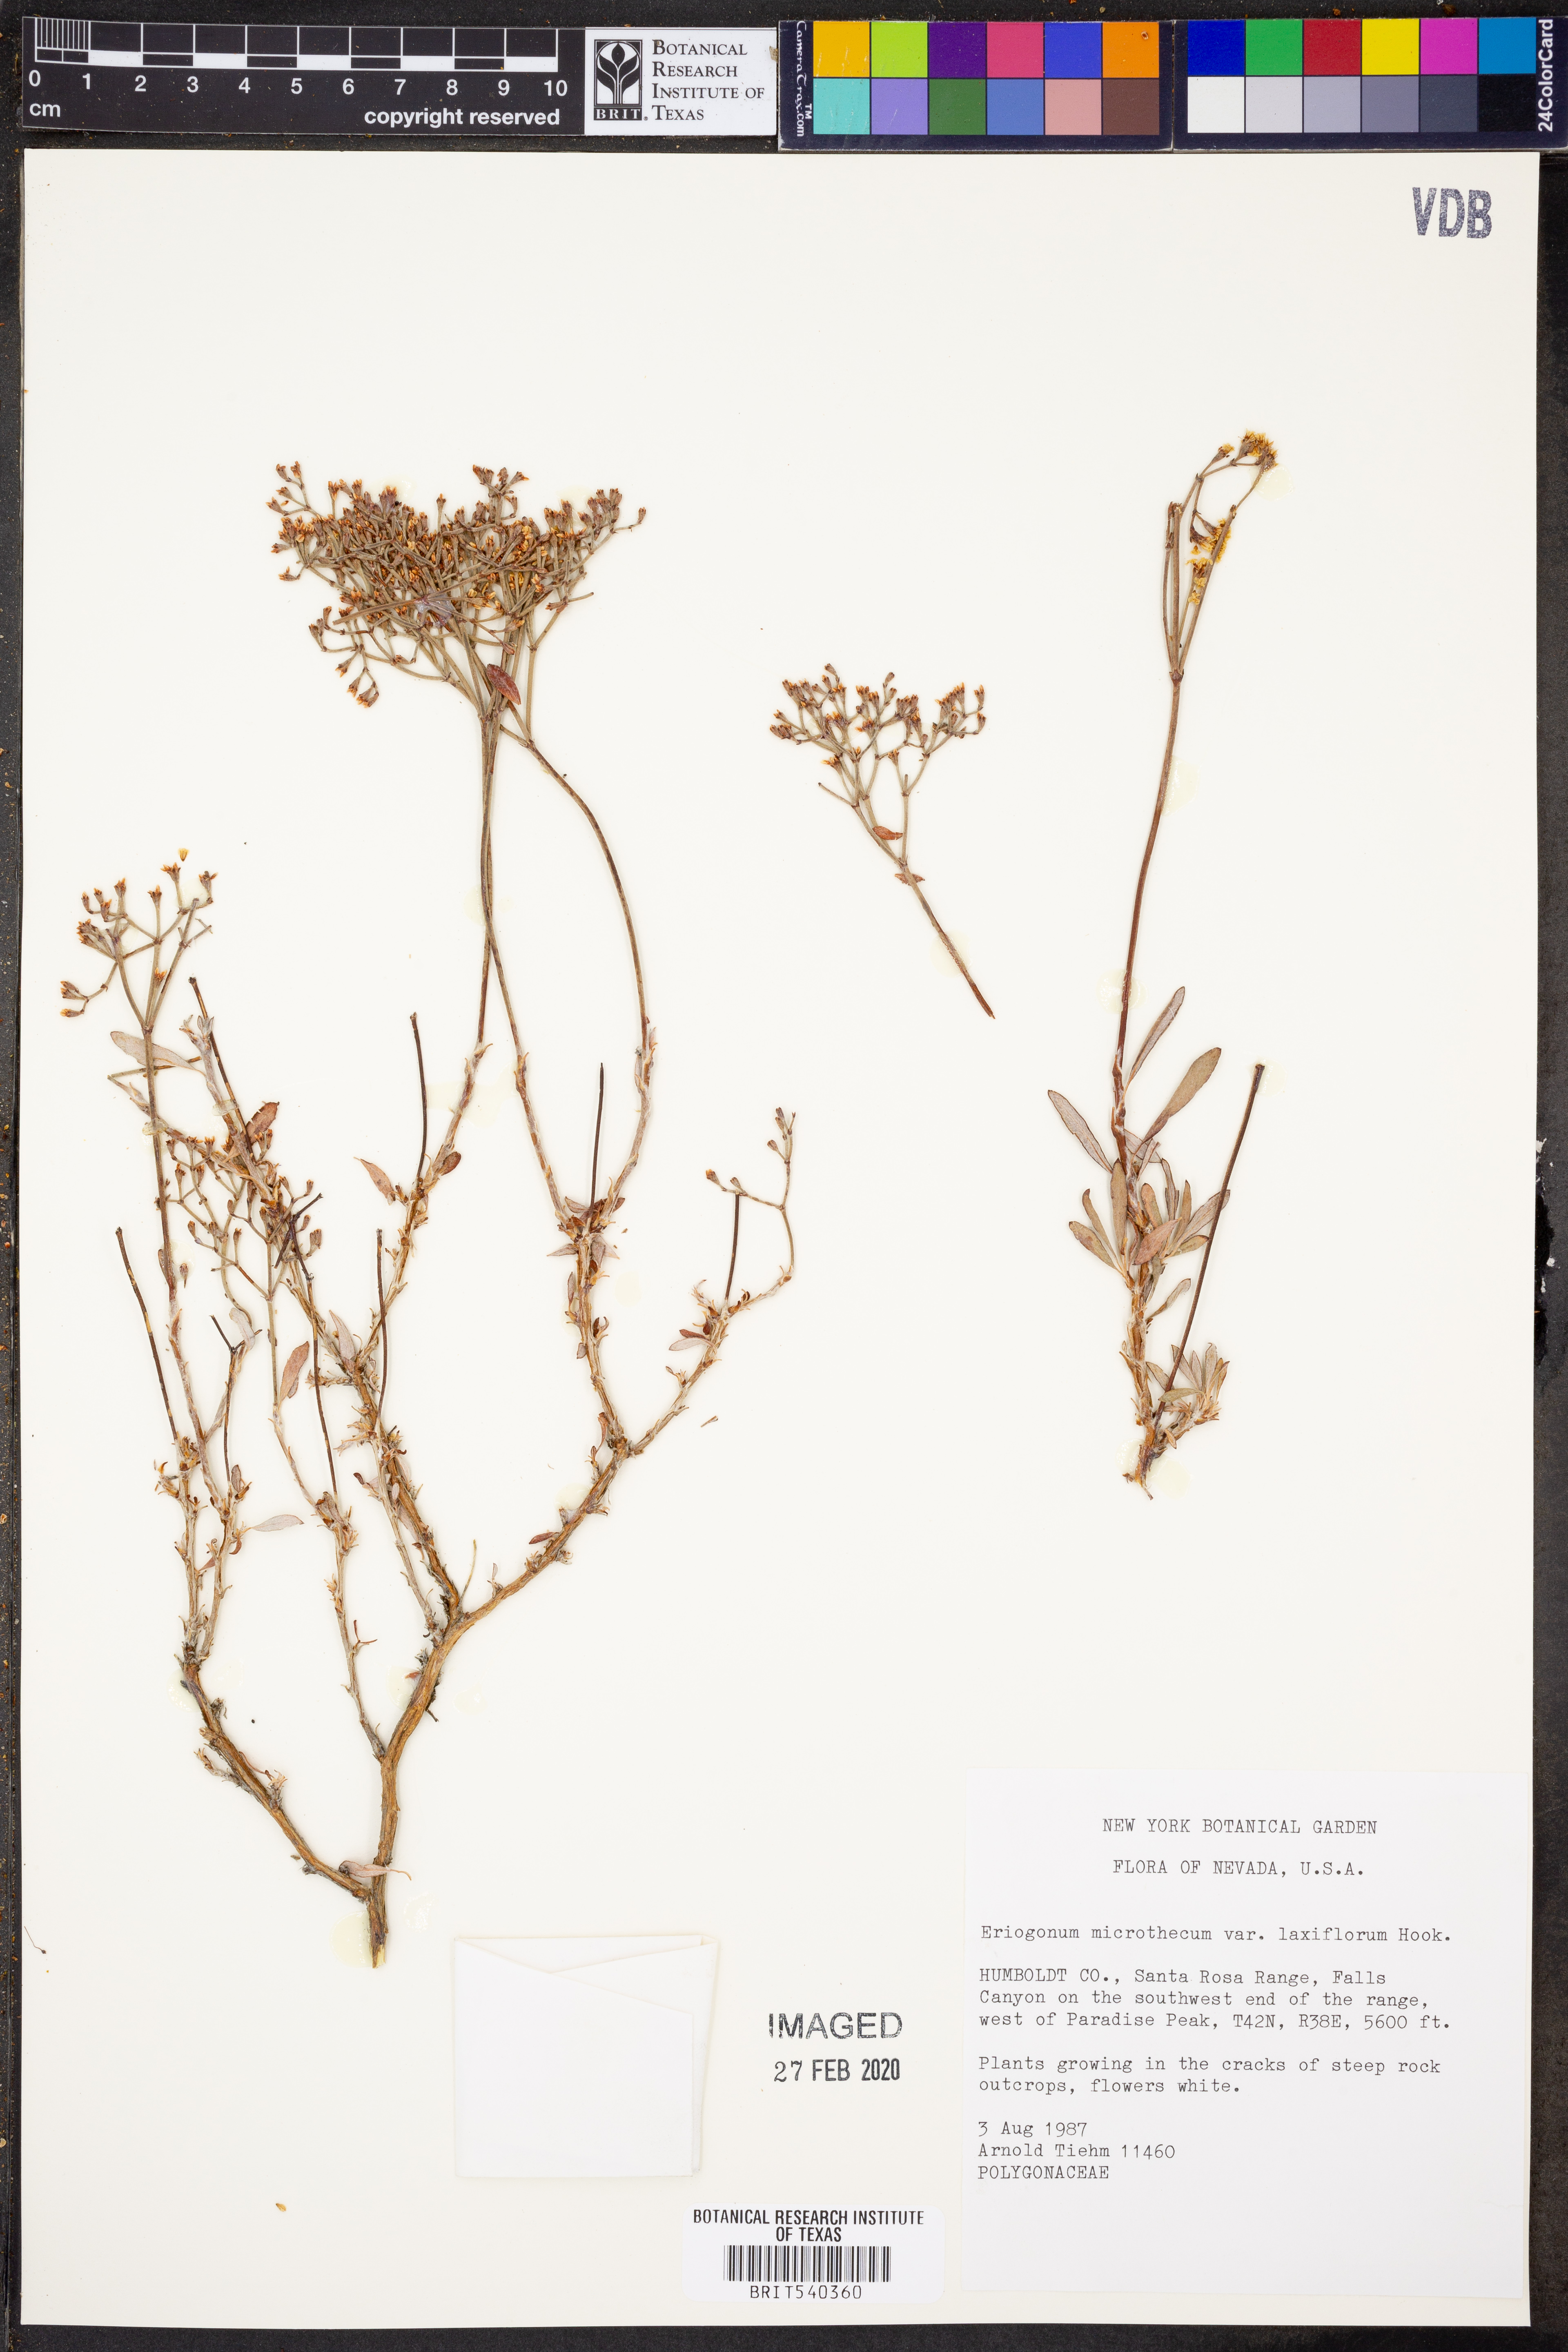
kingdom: Plantae
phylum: Tracheophyta
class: Magnoliopsida
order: Caryophyllales
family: Polygonaceae
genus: Eriogonum
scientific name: Eriogonum microtheca
